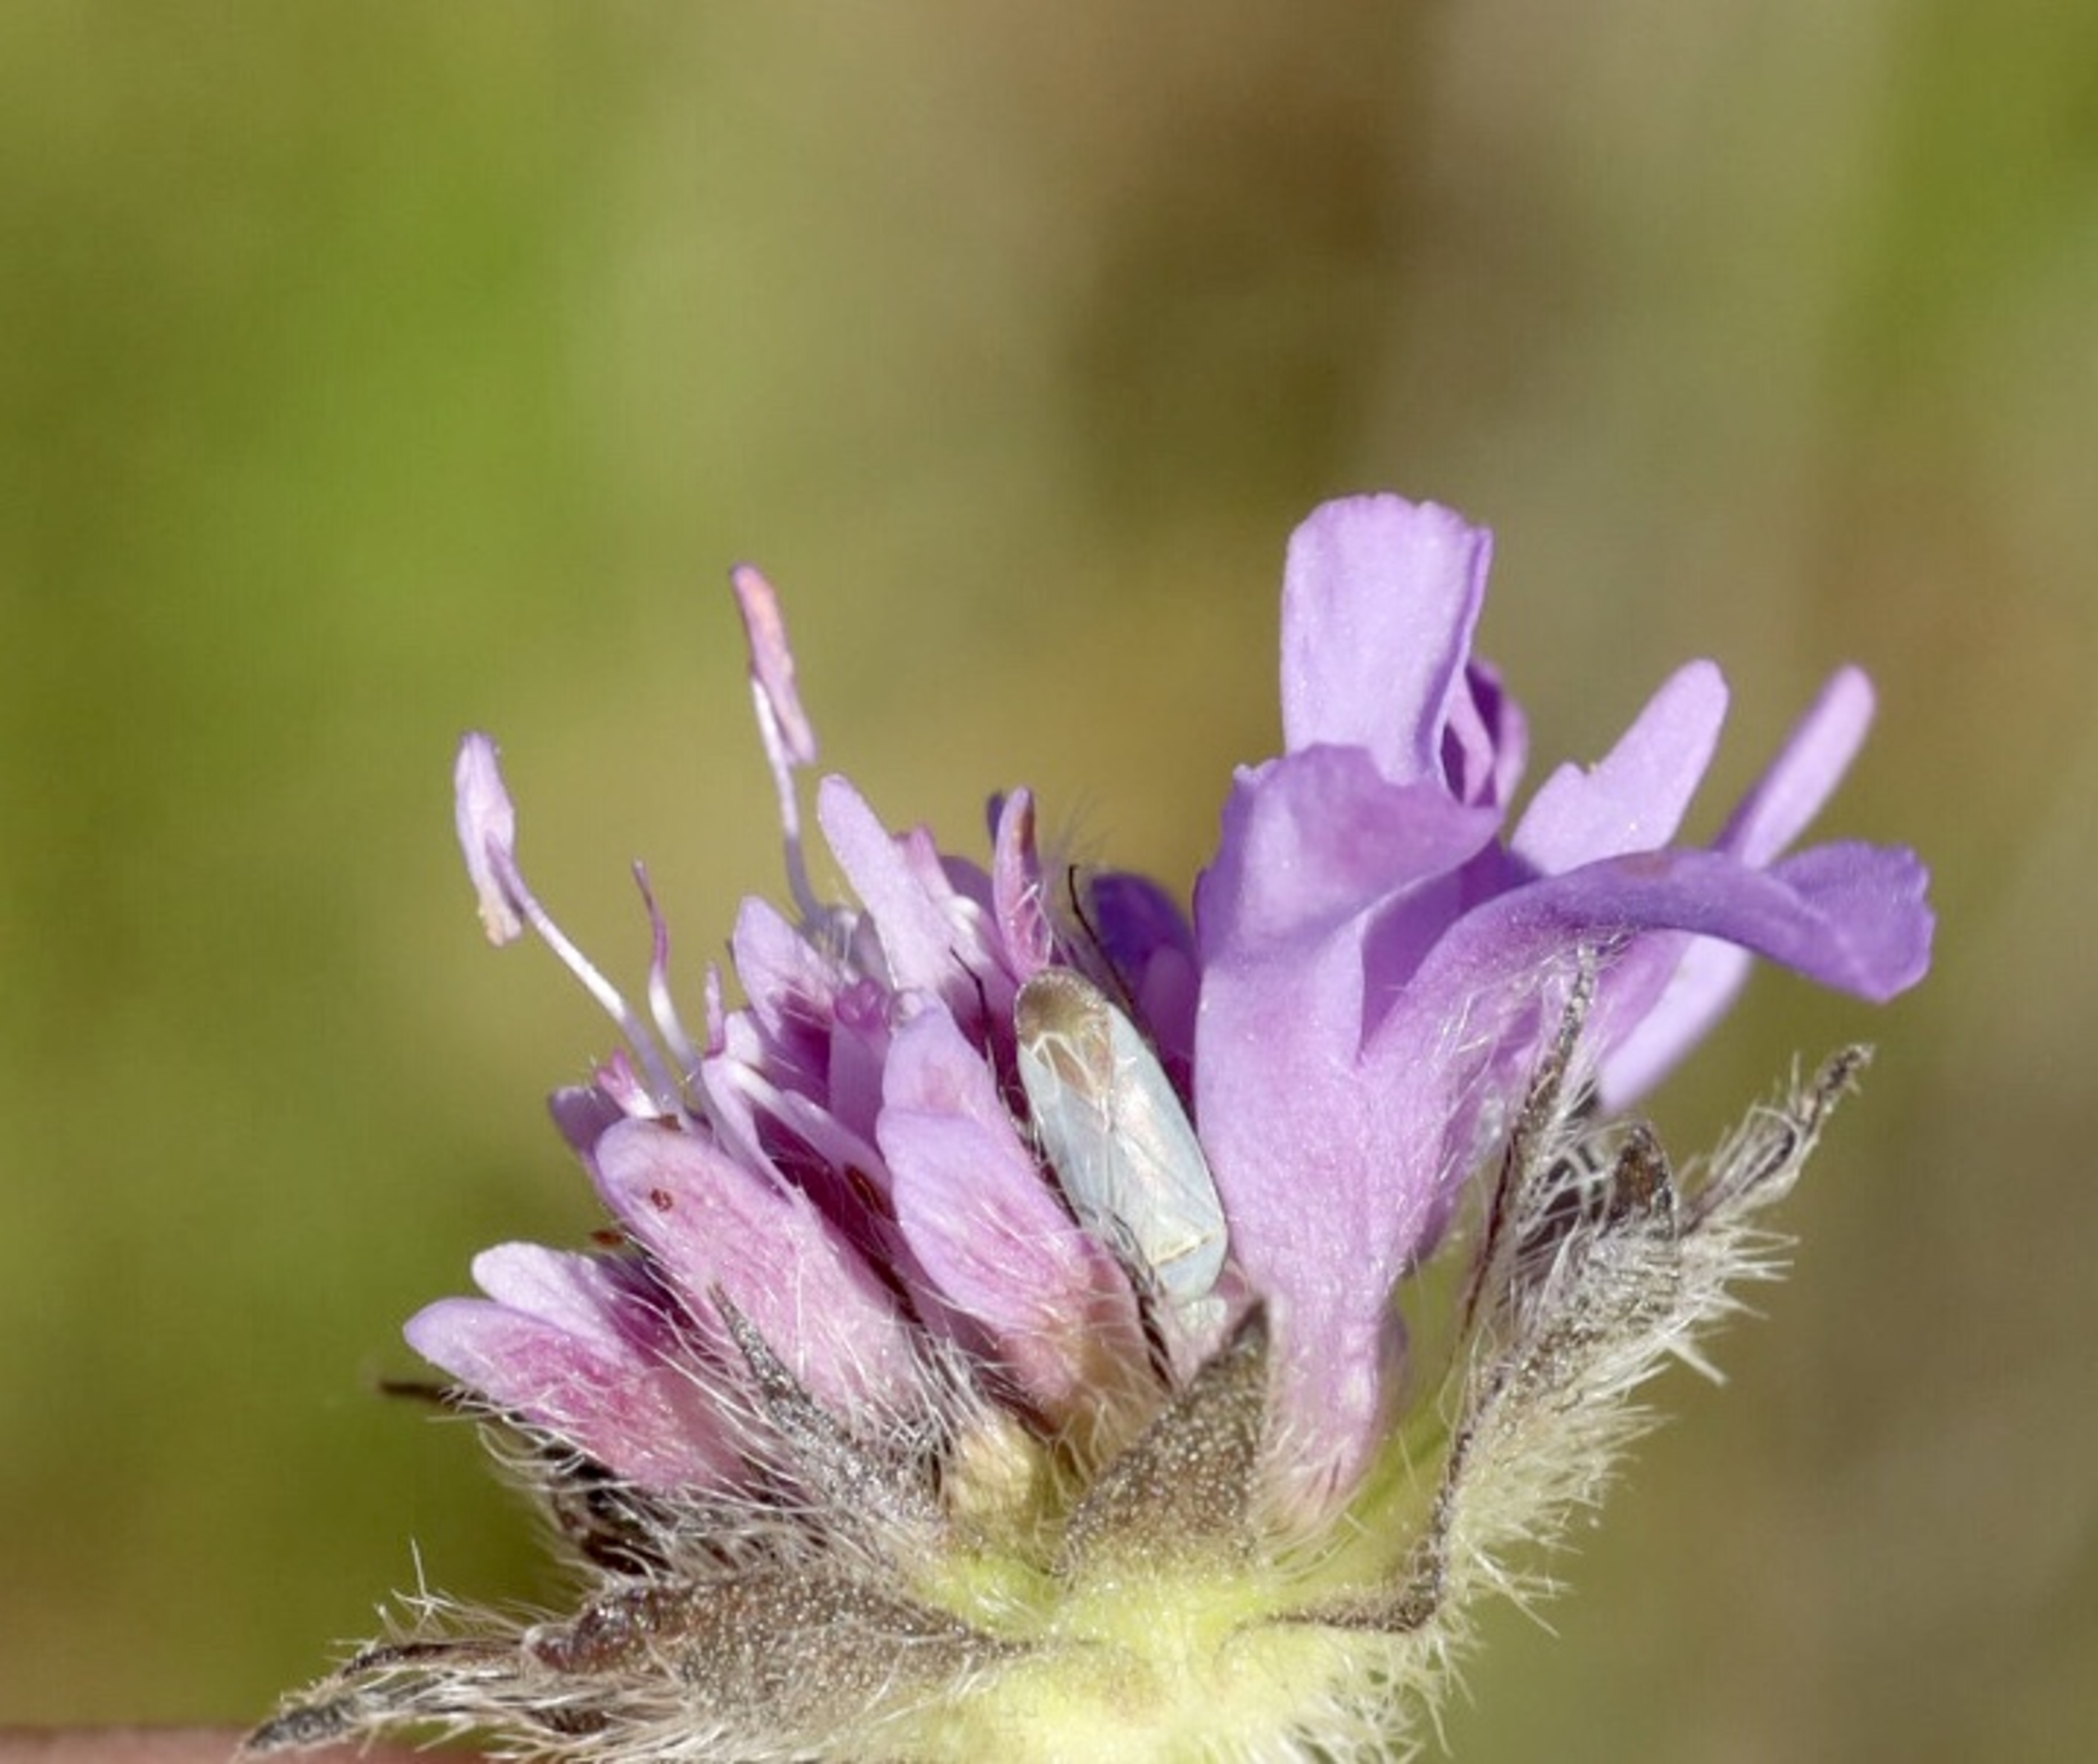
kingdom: Animalia
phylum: Arthropoda
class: Insecta
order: Hemiptera
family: Miridae
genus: Placochilus
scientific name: Placochilus seladonicus
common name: Blåhatblomstertæge
